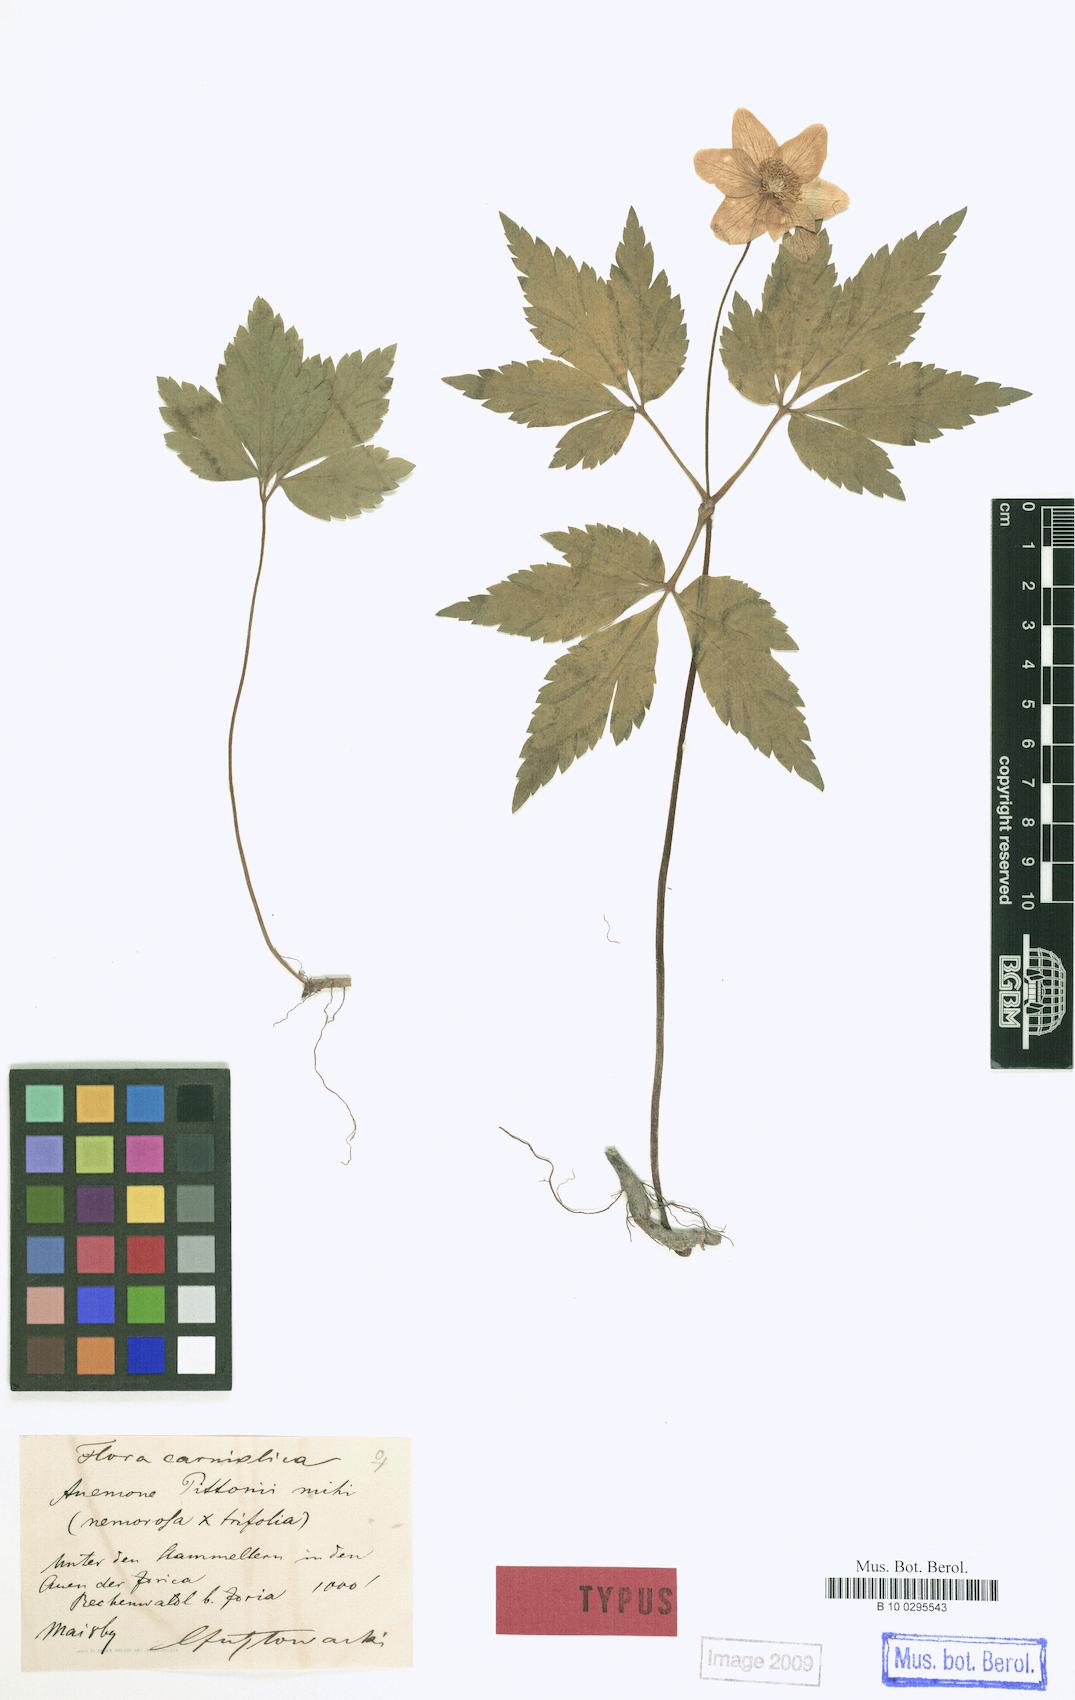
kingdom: Plantae
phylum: Tracheophyta
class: Magnoliopsida
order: Ranunculales
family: Ranunculaceae
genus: Anemone
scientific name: Anemone pittonii
